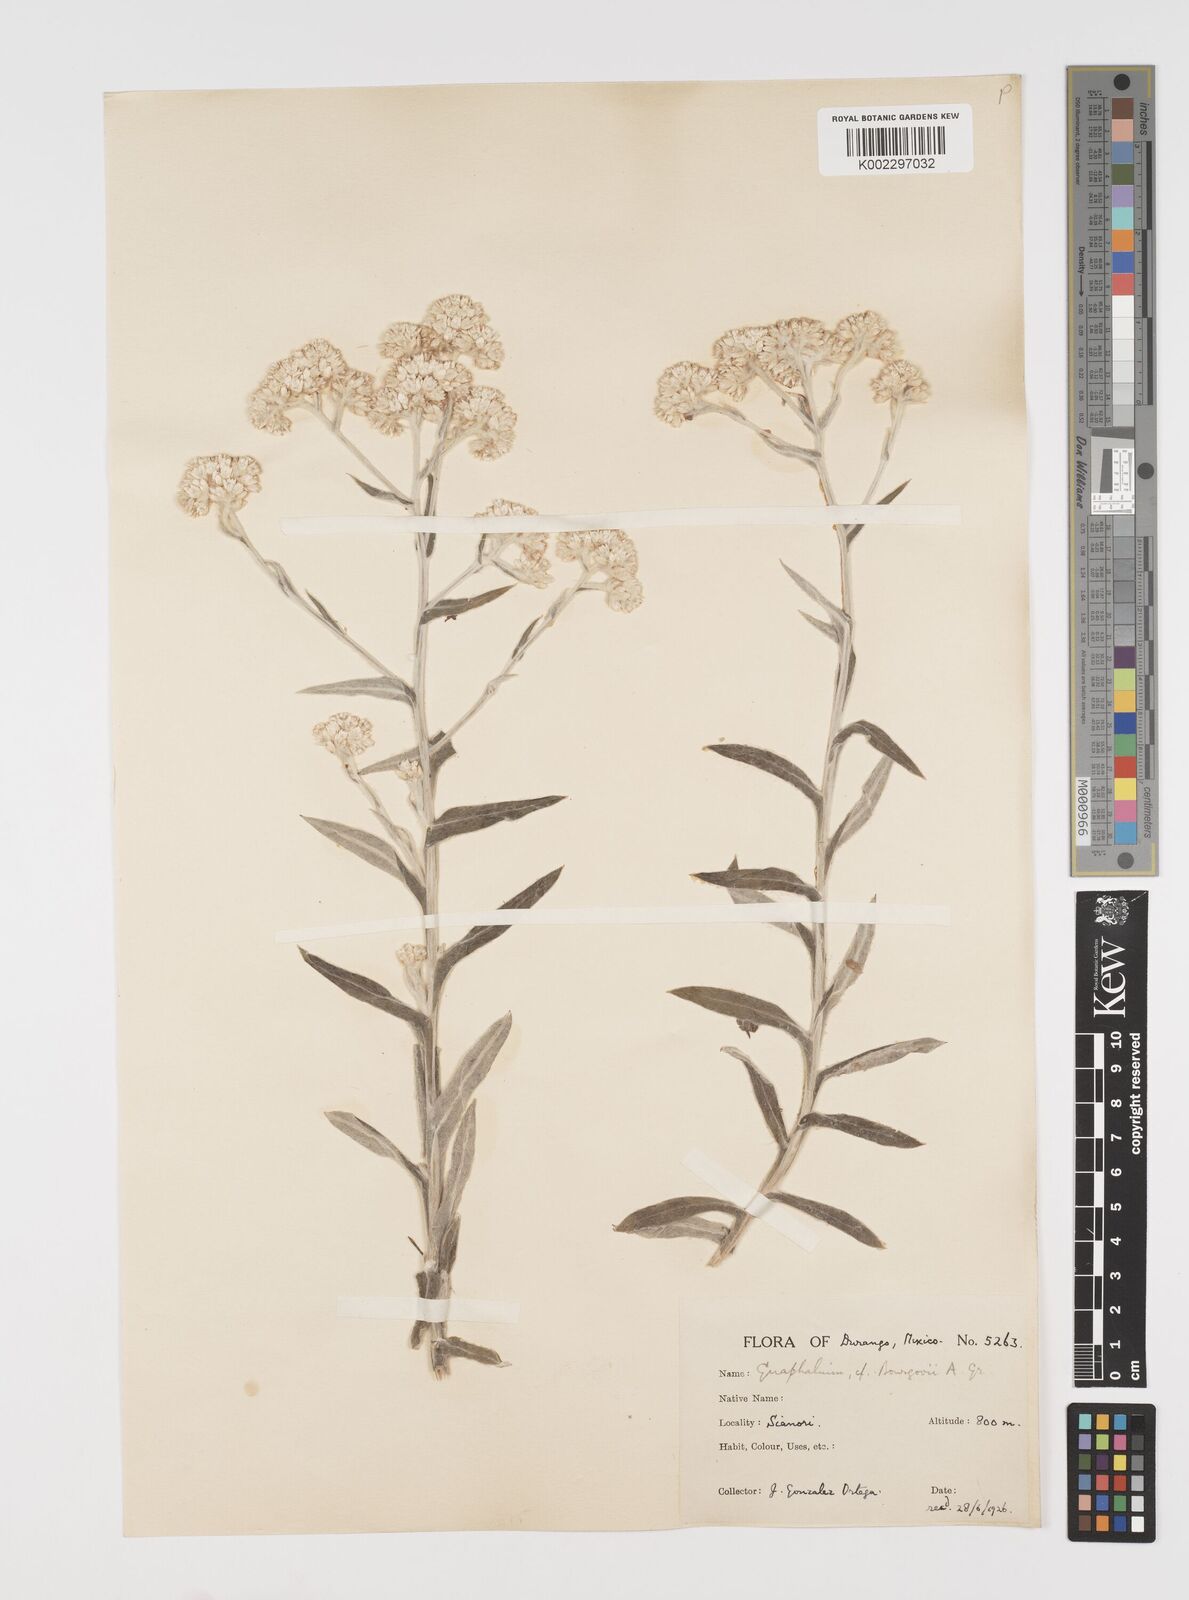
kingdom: Plantae
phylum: Tracheophyta
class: Magnoliopsida
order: Asterales
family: Asteraceae
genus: Pseudognaphalium
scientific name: Pseudognaphalium bourgovii
